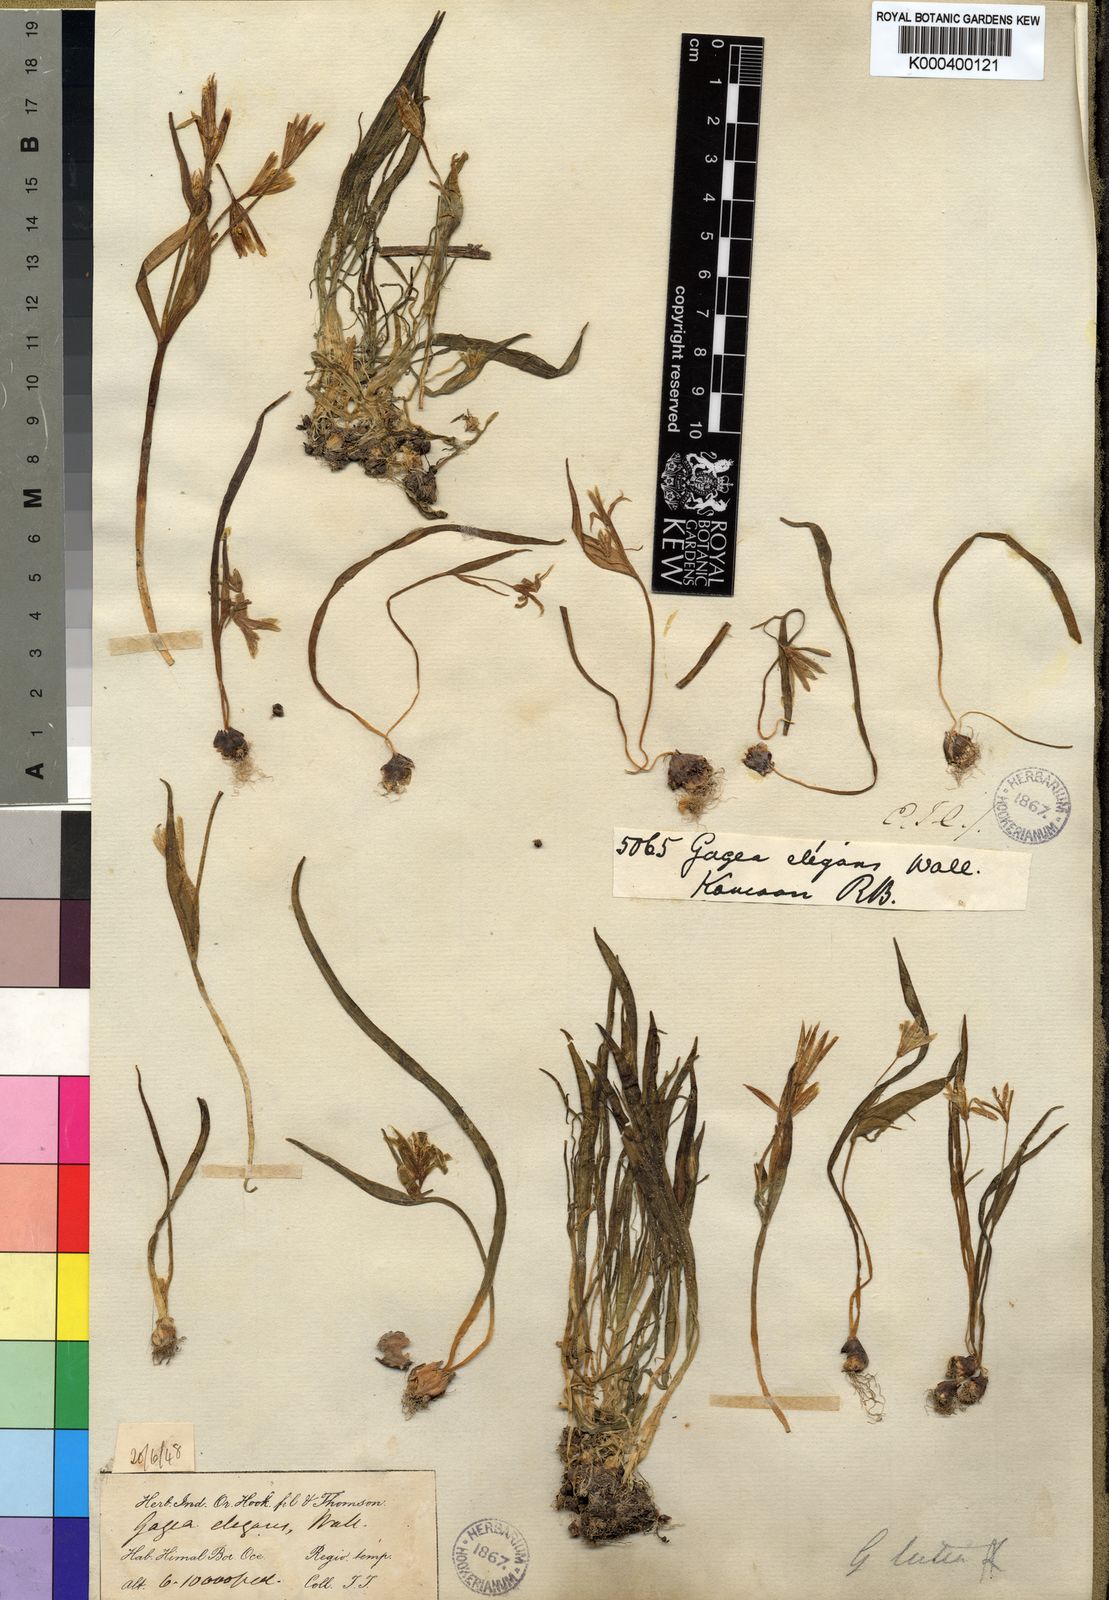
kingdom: Plantae
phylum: Tracheophyta
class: Liliopsida
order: Liliales
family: Liliaceae
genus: Gagea
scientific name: Gagea
